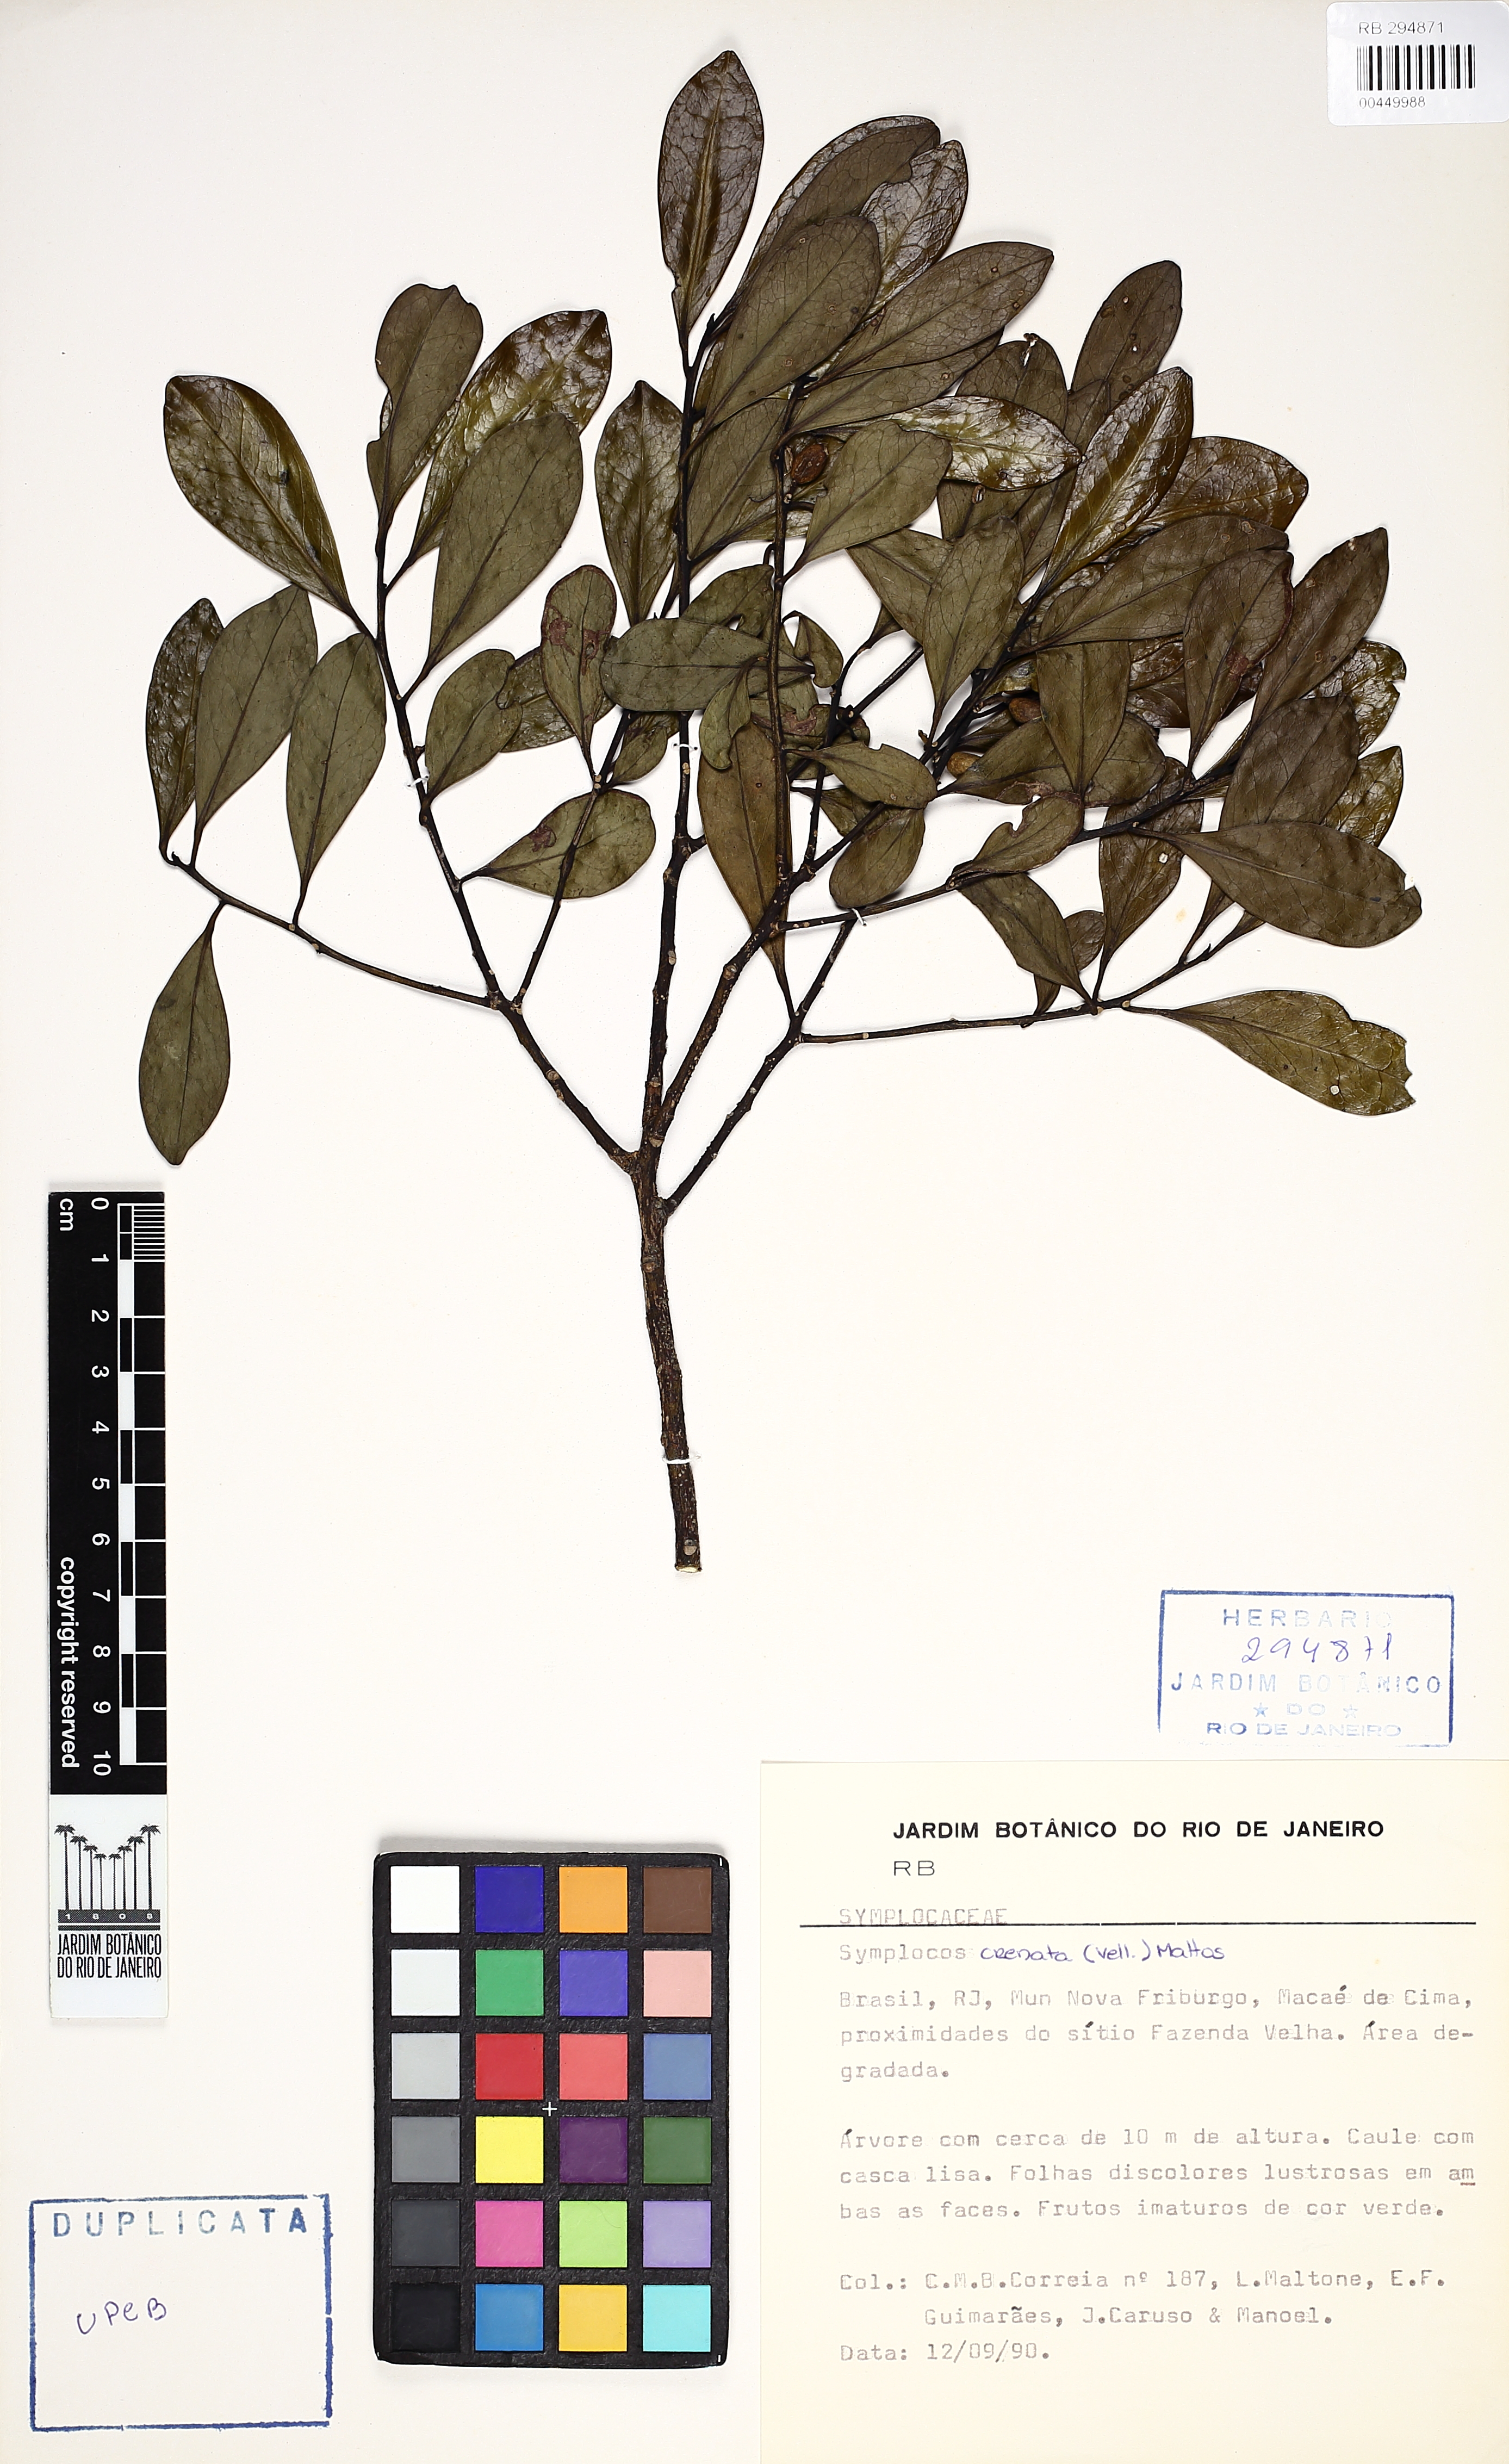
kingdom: Plantae
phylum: Tracheophyta
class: Magnoliopsida
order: Ericales
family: Symplocaceae
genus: Symplocos
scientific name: Symplocos oblongifolia
